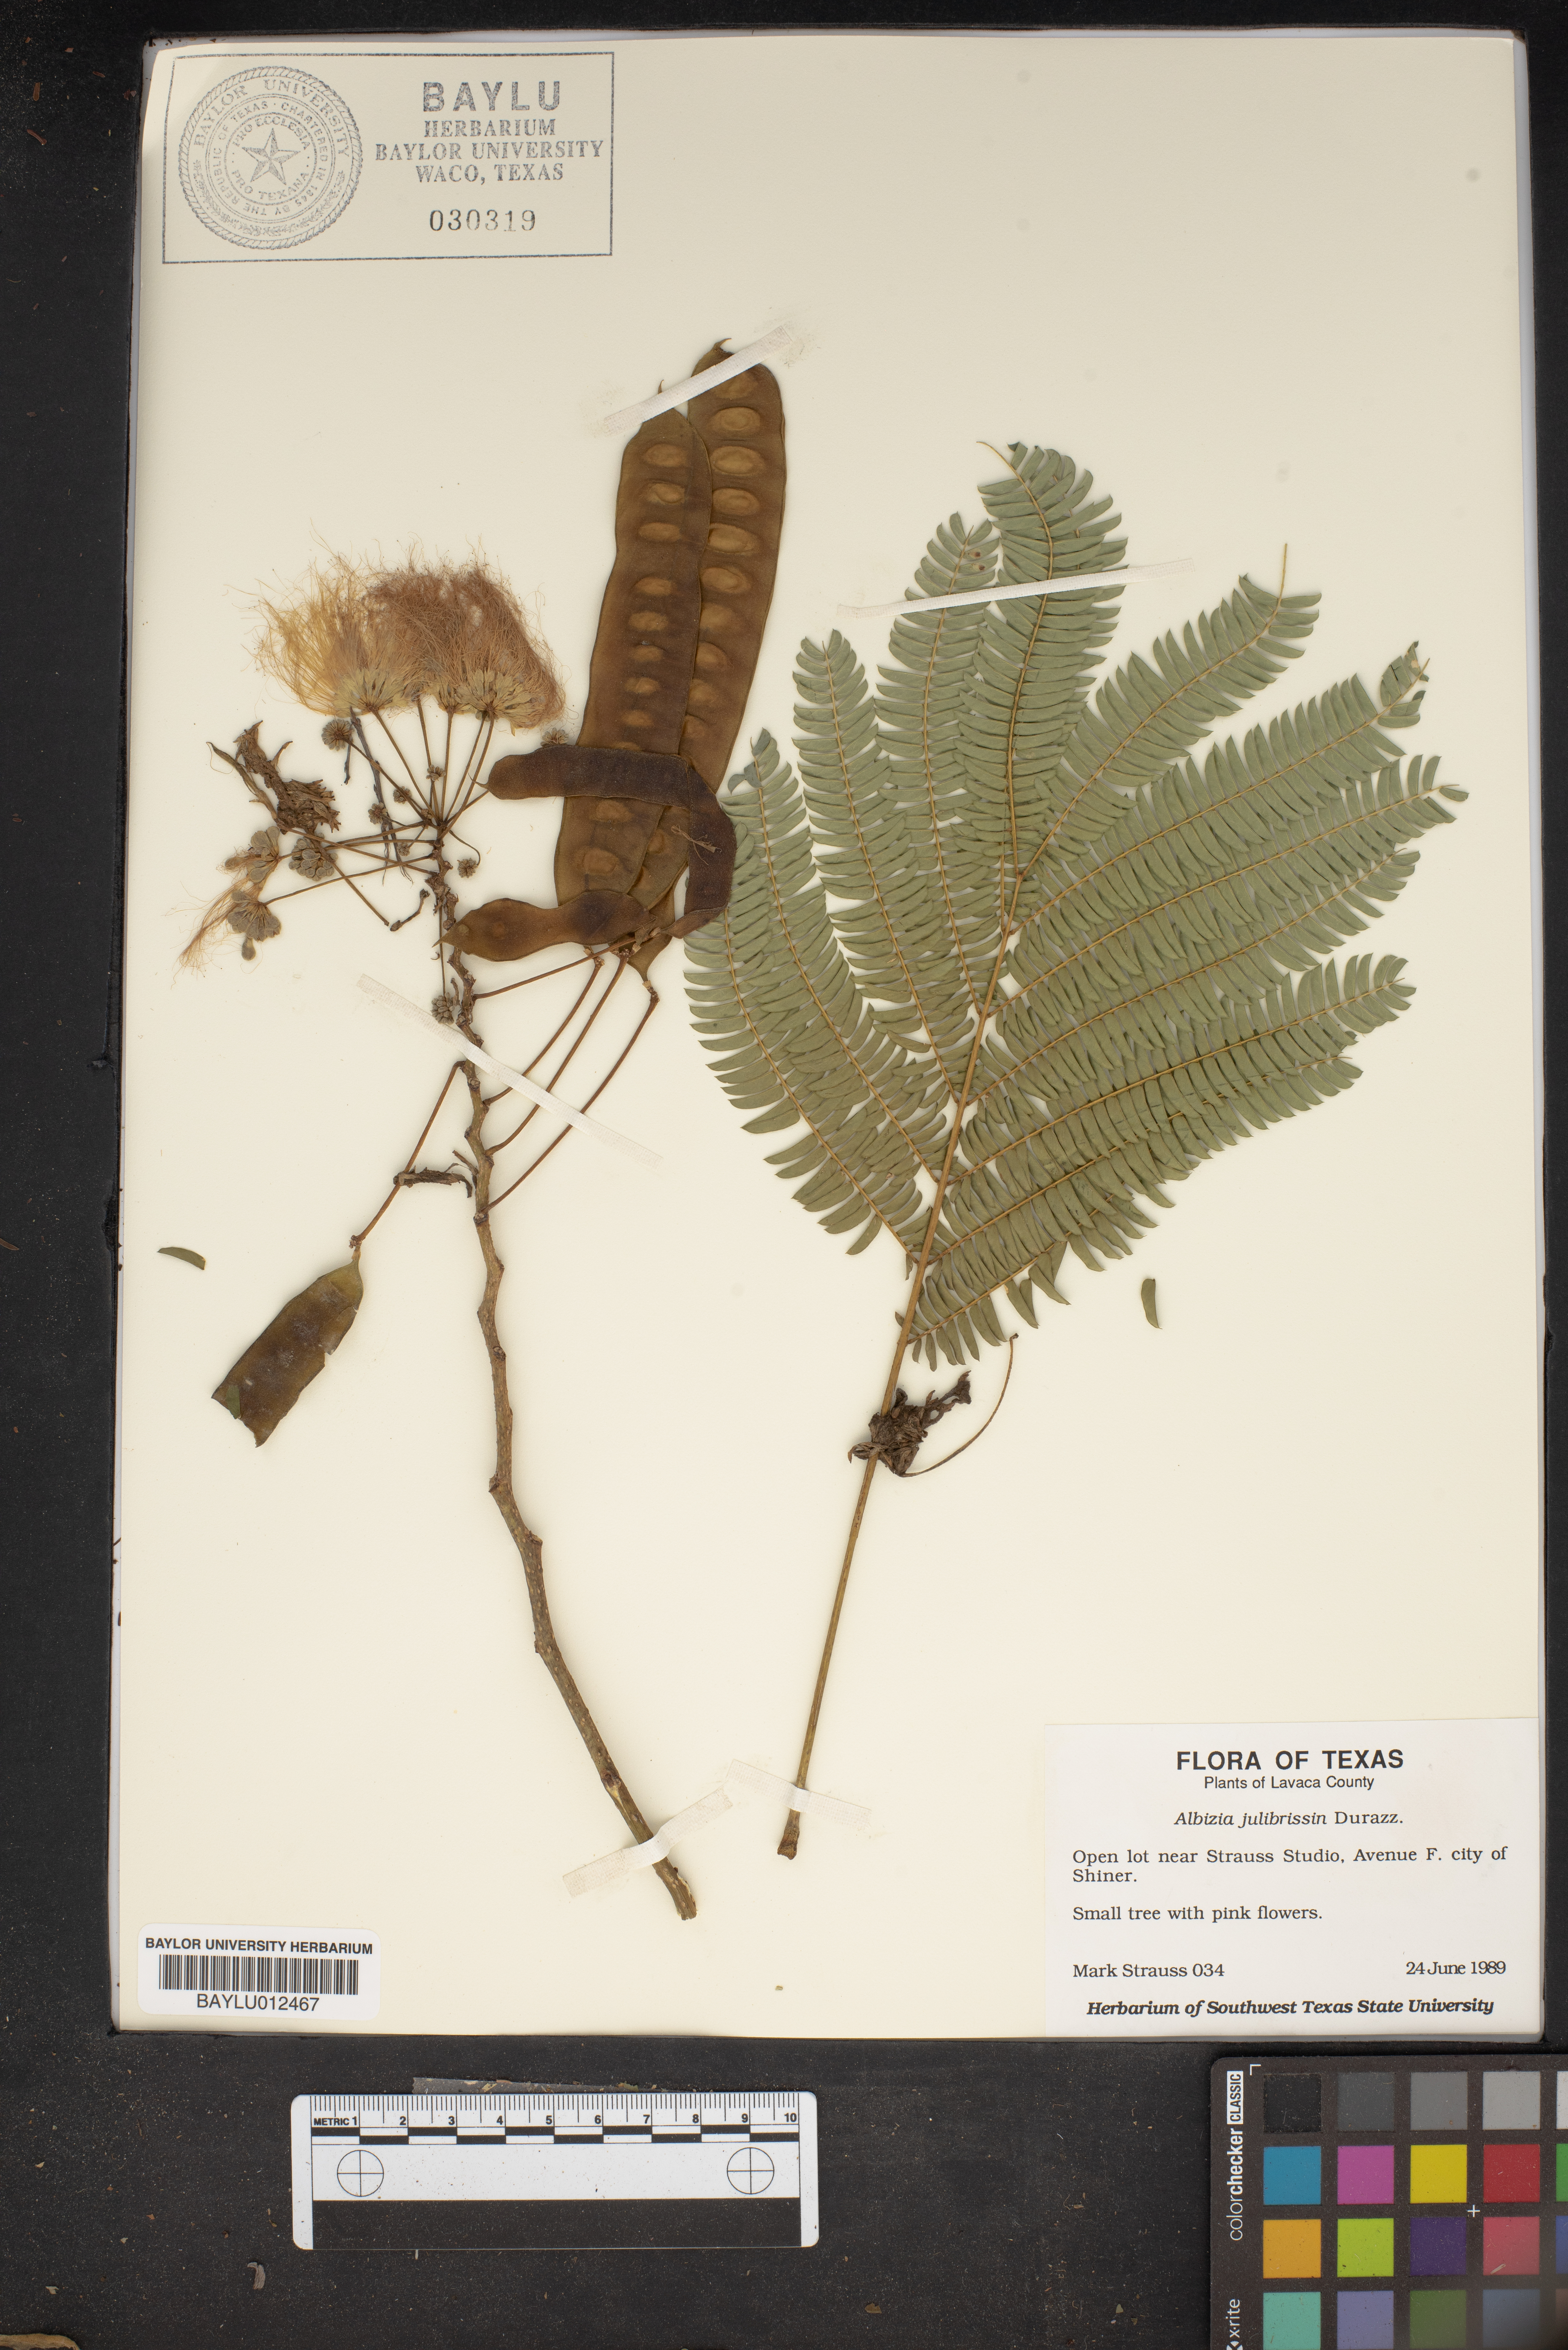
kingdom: Plantae
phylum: Tracheophyta
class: Magnoliopsida
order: Fabales
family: Fabaceae
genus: Albizia
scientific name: Albizia julibrissin
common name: Silktree
